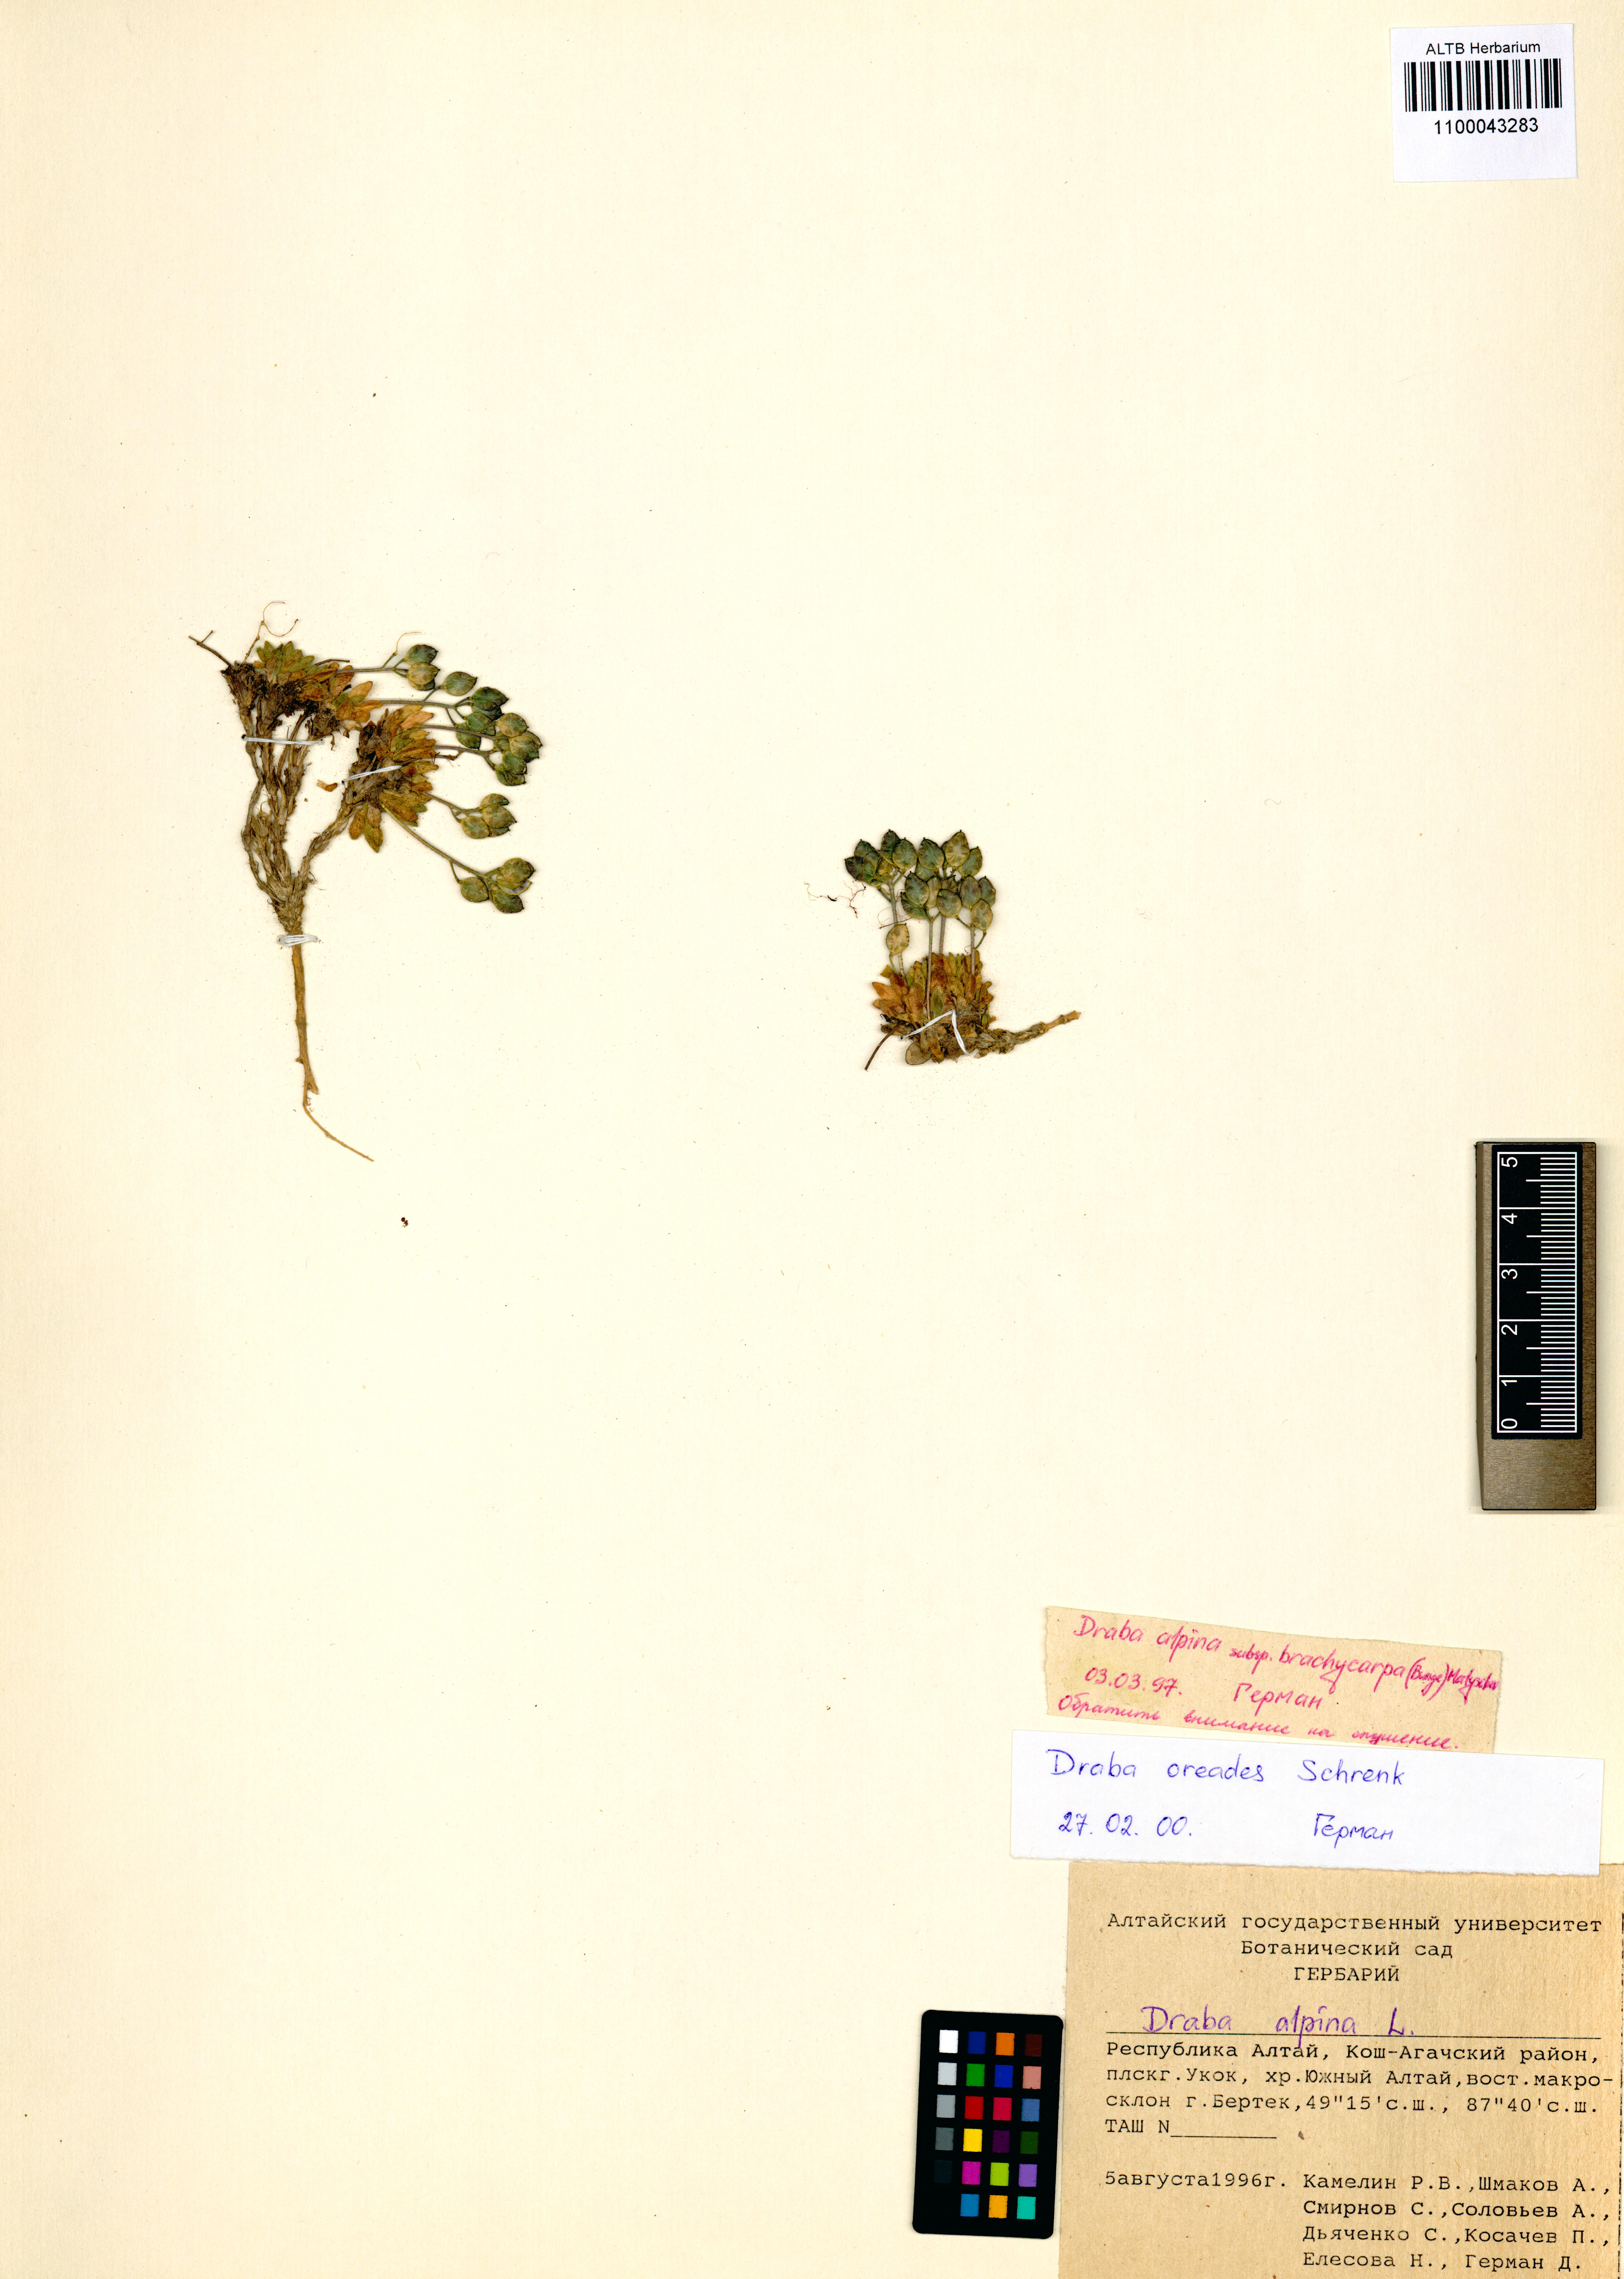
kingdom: Plantae
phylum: Tracheophyta
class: Magnoliopsida
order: Brassicales
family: Brassicaceae
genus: Draba
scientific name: Draba oreades
